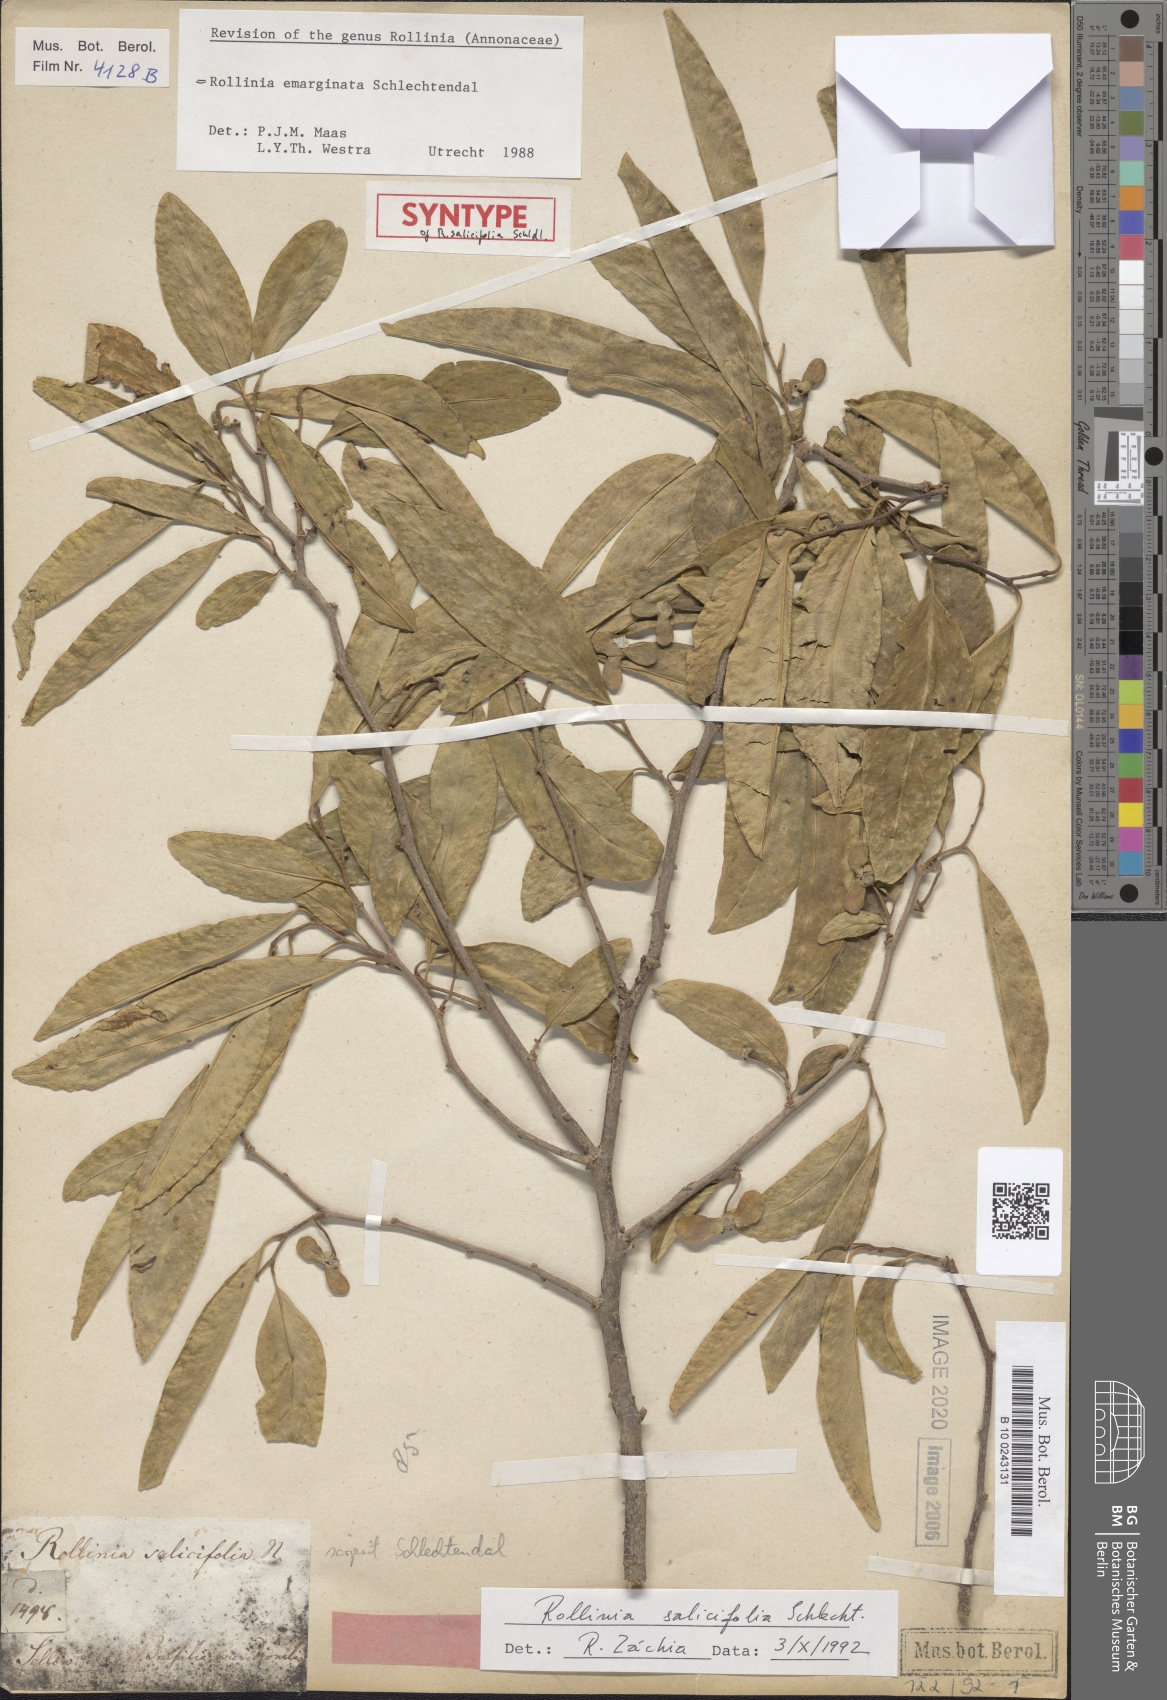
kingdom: Plantae
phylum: Tracheophyta
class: Magnoliopsida
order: Magnoliales
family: Annonaceae
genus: Annona
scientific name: Annona emarginata
